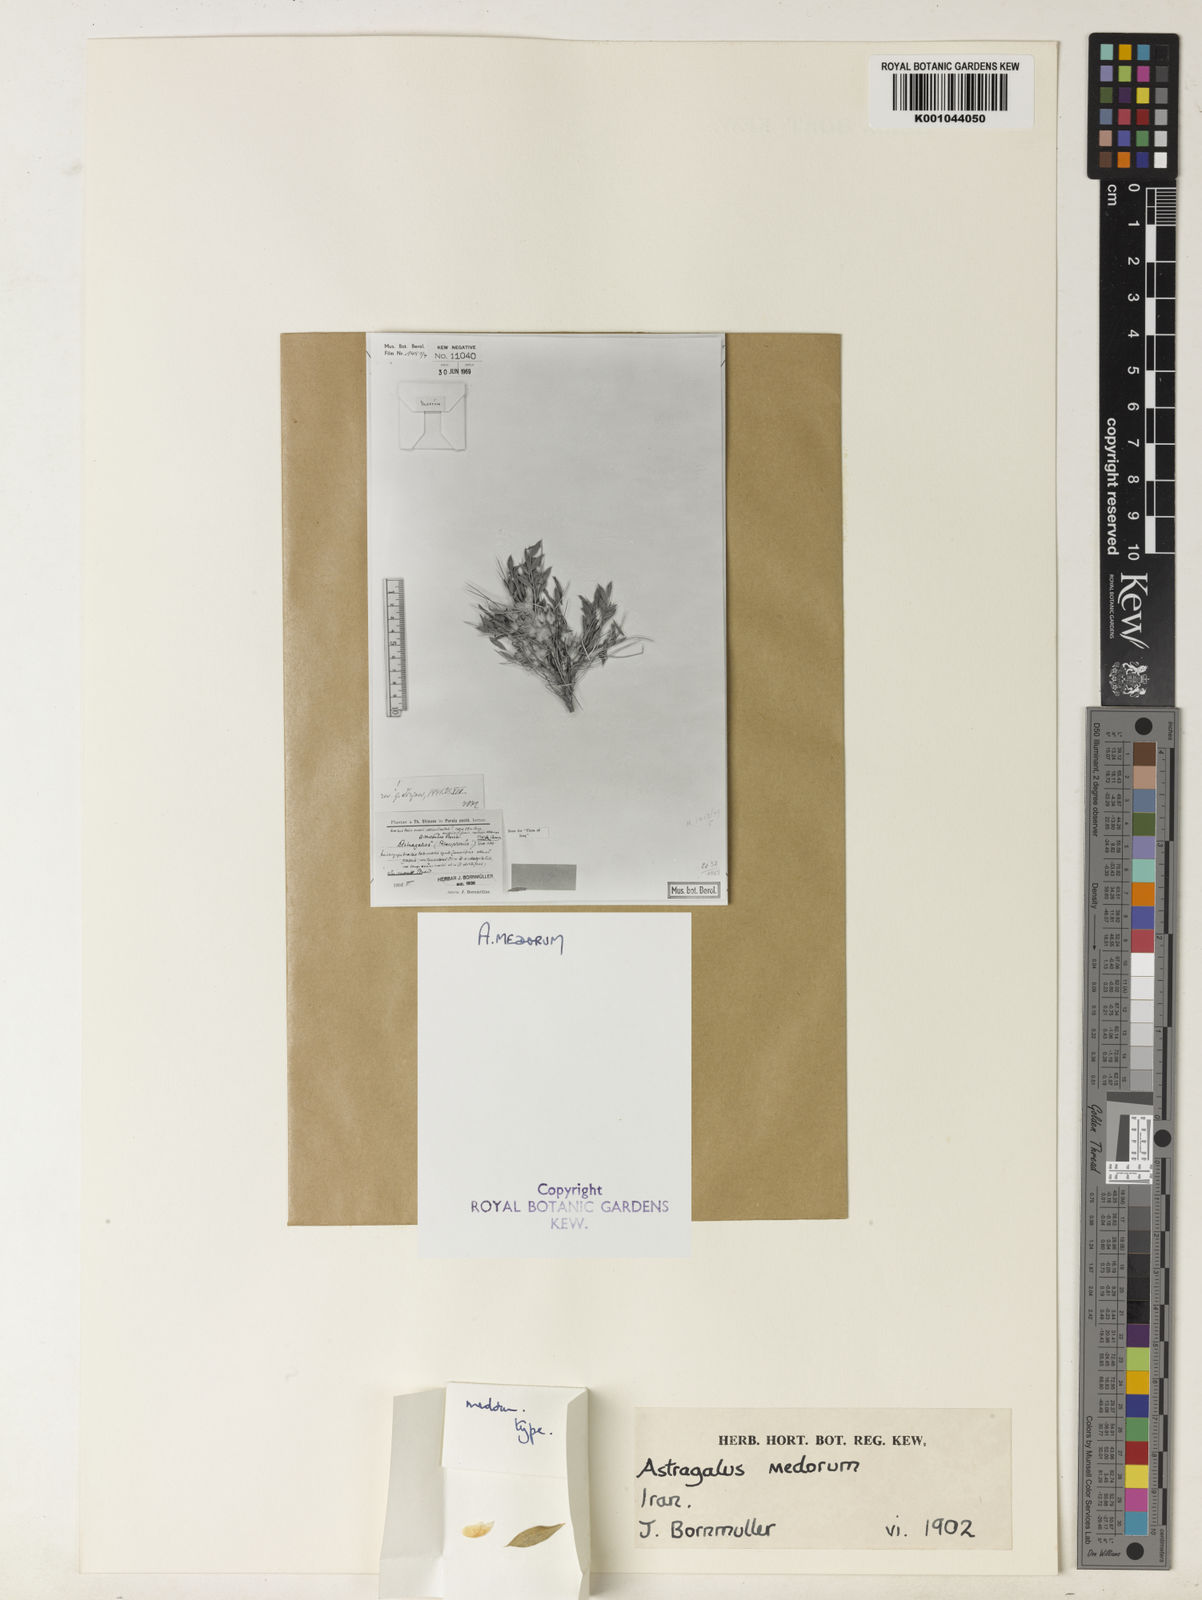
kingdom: Plantae
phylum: Tracheophyta
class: Magnoliopsida
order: Fabales
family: Fabaceae
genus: Astragalus
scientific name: Astragalus glaucops
